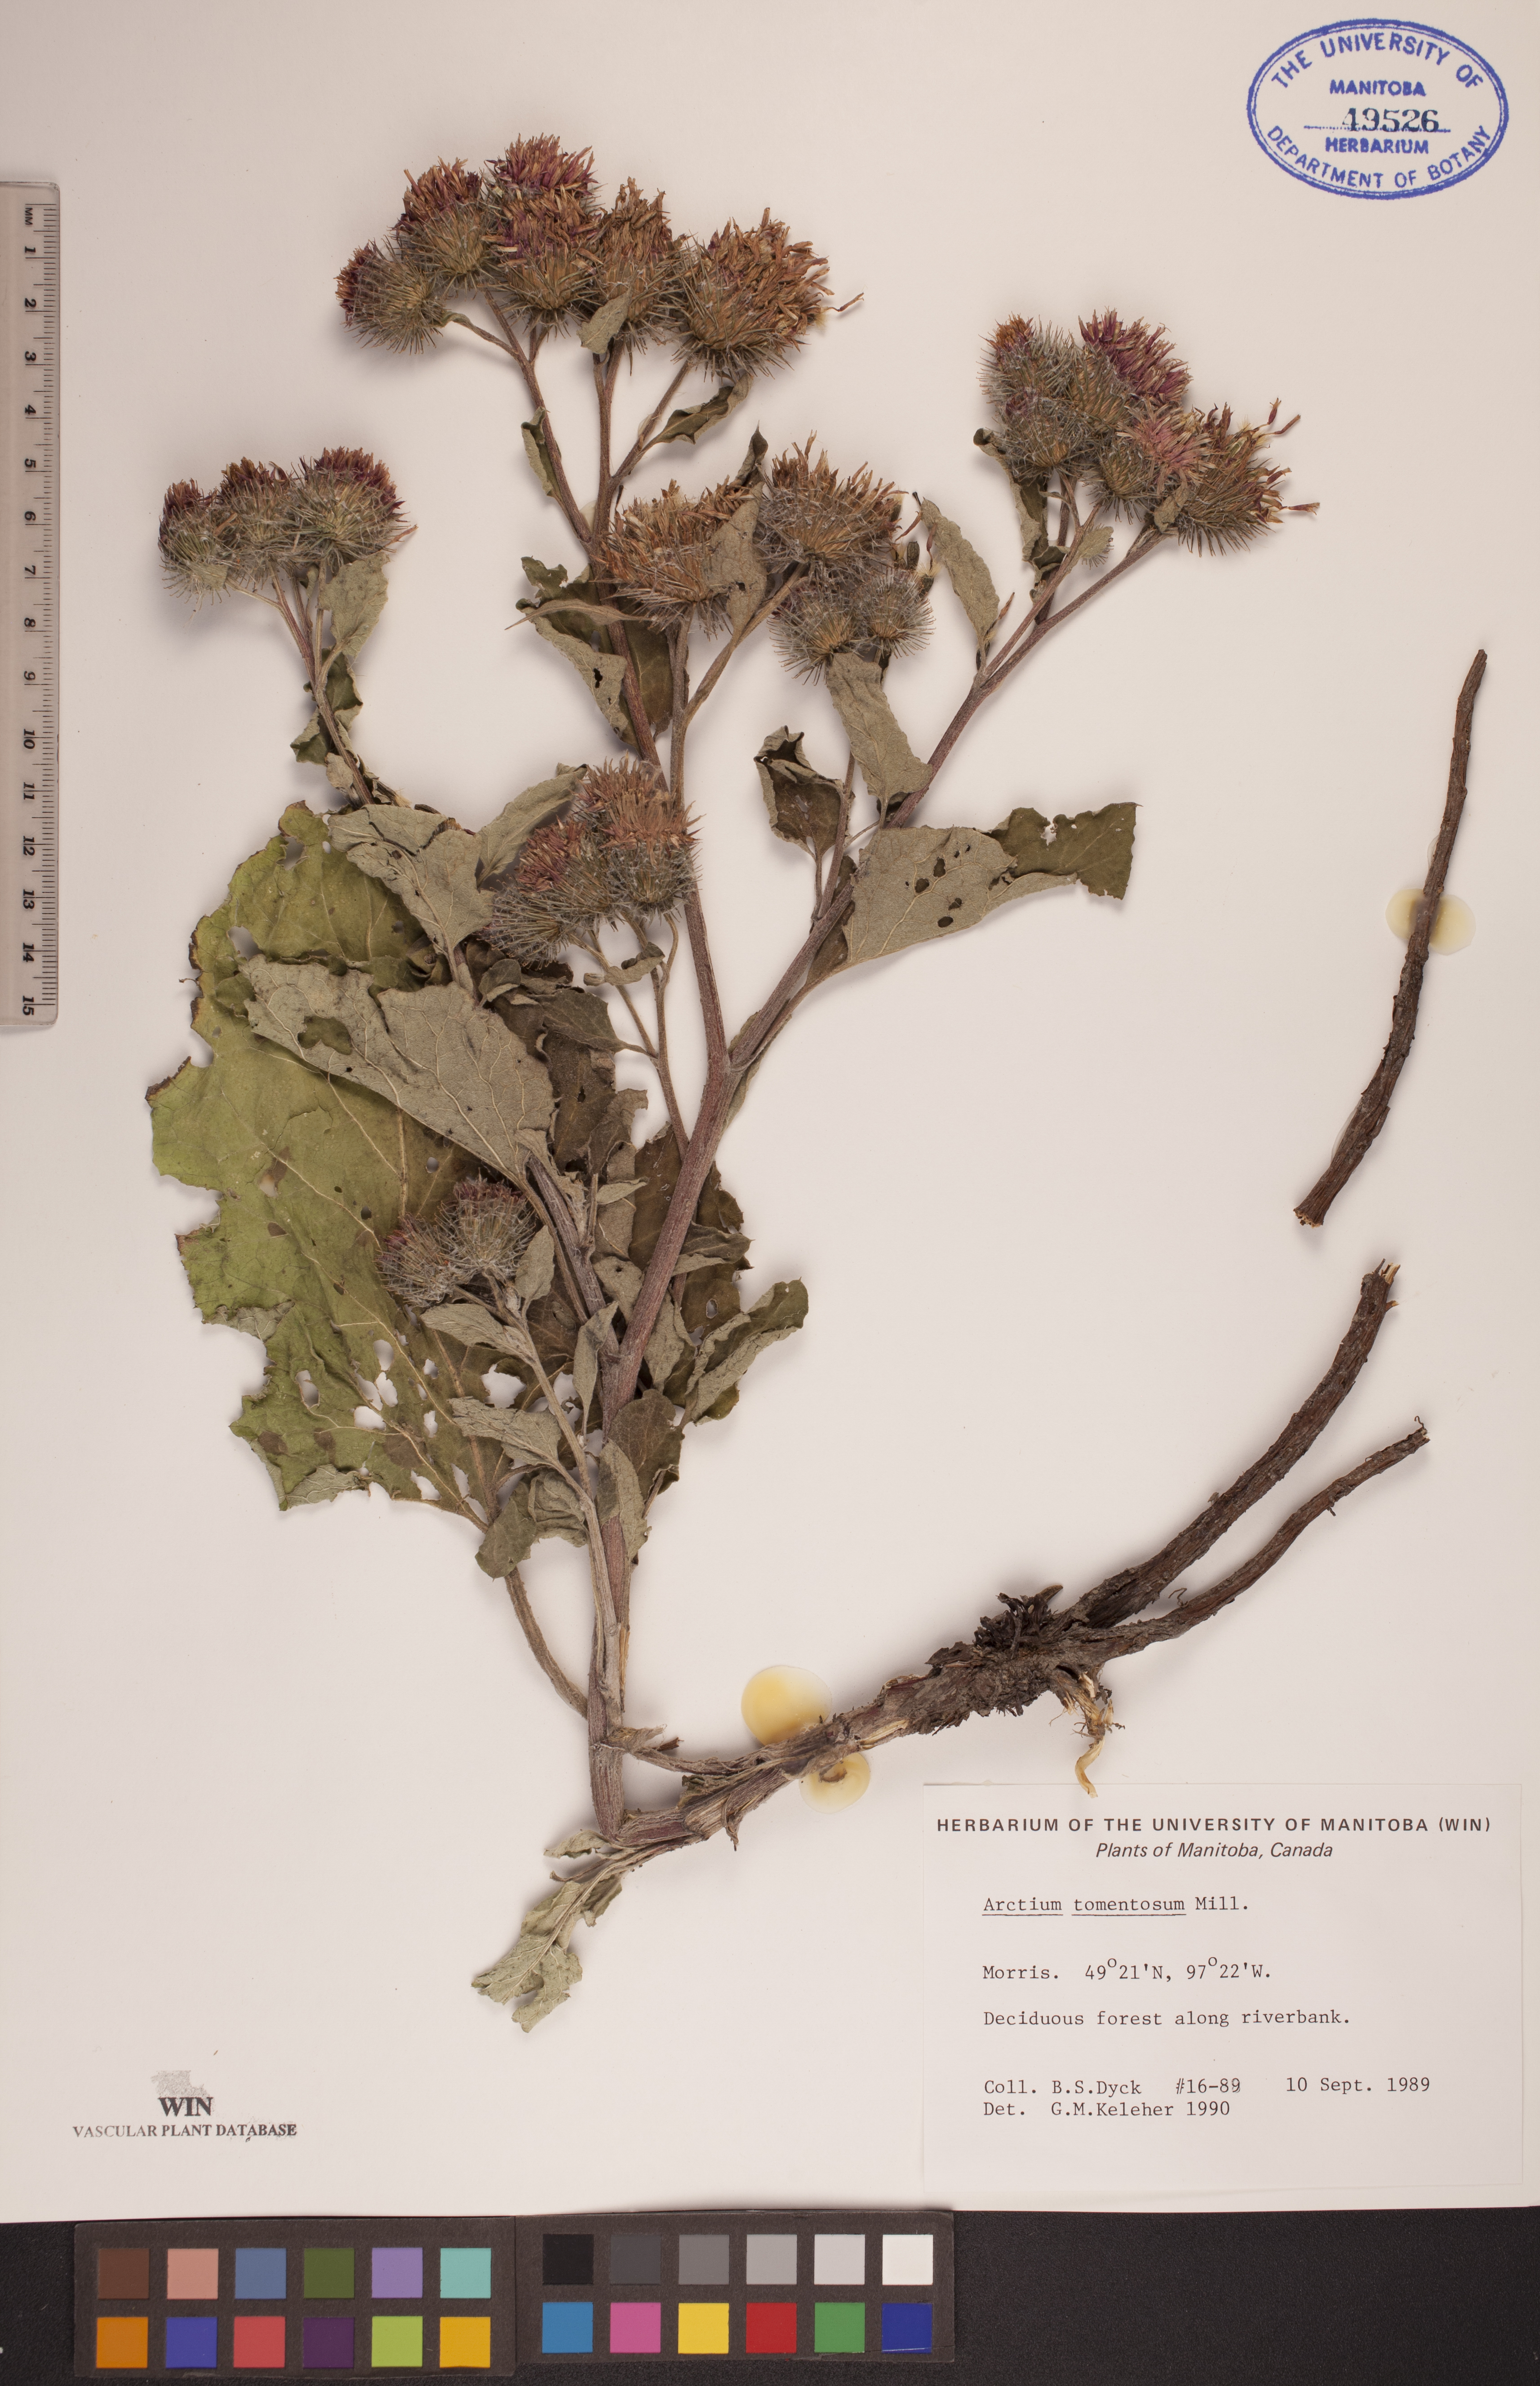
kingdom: Plantae
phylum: Tracheophyta
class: Magnoliopsida
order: Asterales
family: Asteraceae
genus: Arctium
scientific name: Arctium tomentosum
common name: Woolly burdock
